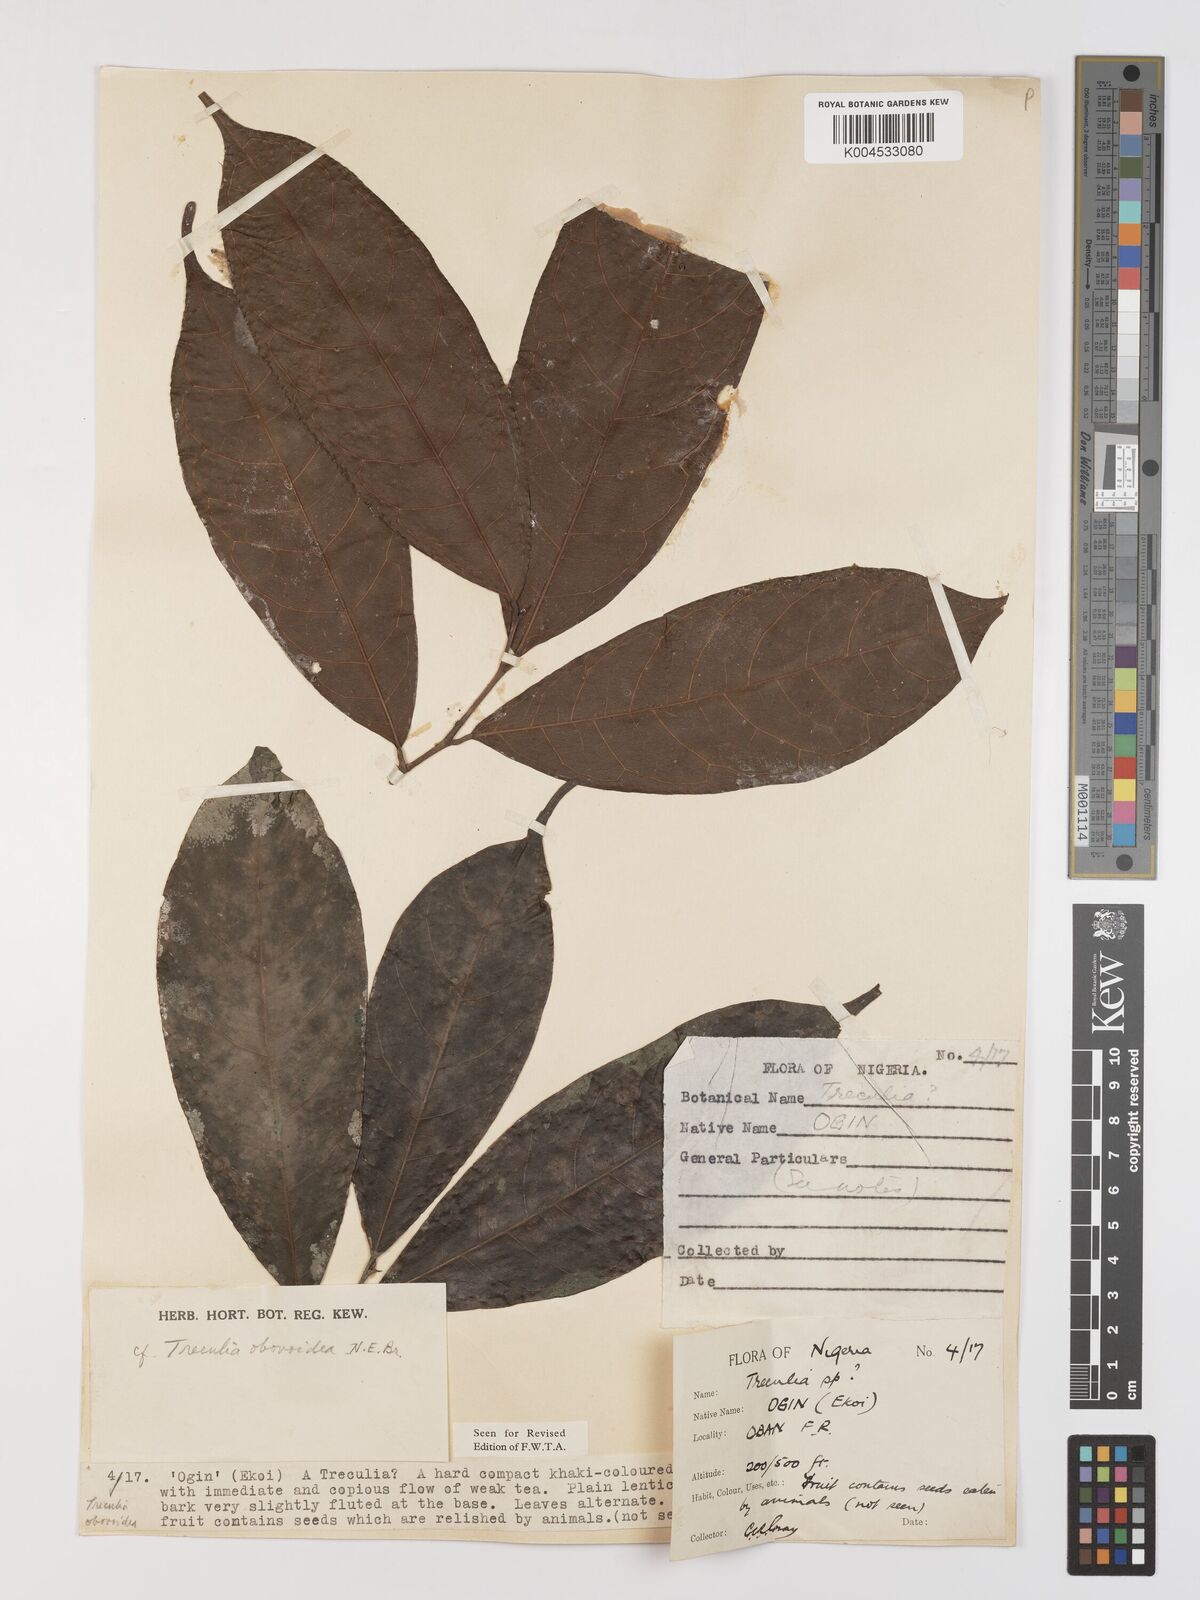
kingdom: Plantae
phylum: Tracheophyta
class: Magnoliopsida
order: Rosales
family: Moraceae
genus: Treculia
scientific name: Treculia obovoidea
